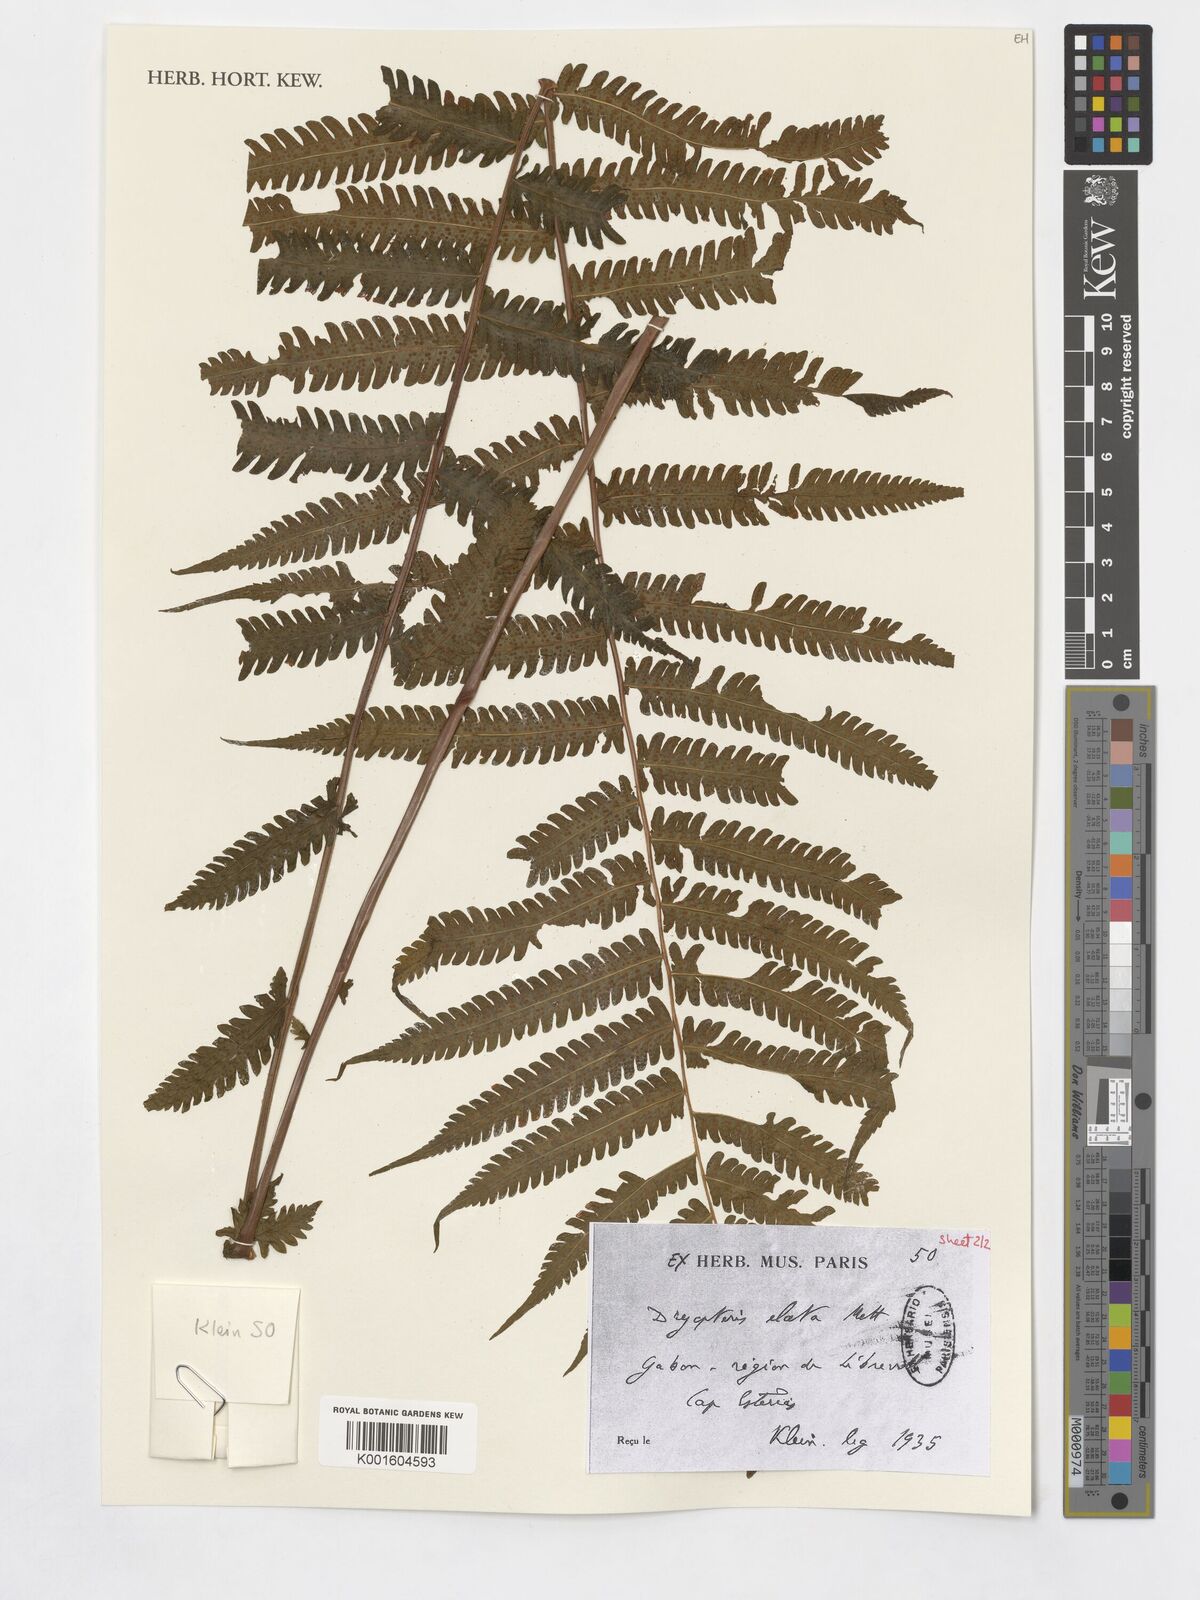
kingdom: Plantae
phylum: Tracheophyta
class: Polypodiopsida
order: Polypodiales
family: Thelypteridaceae
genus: Pneumatopteris
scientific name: Pneumatopteris venulosa
